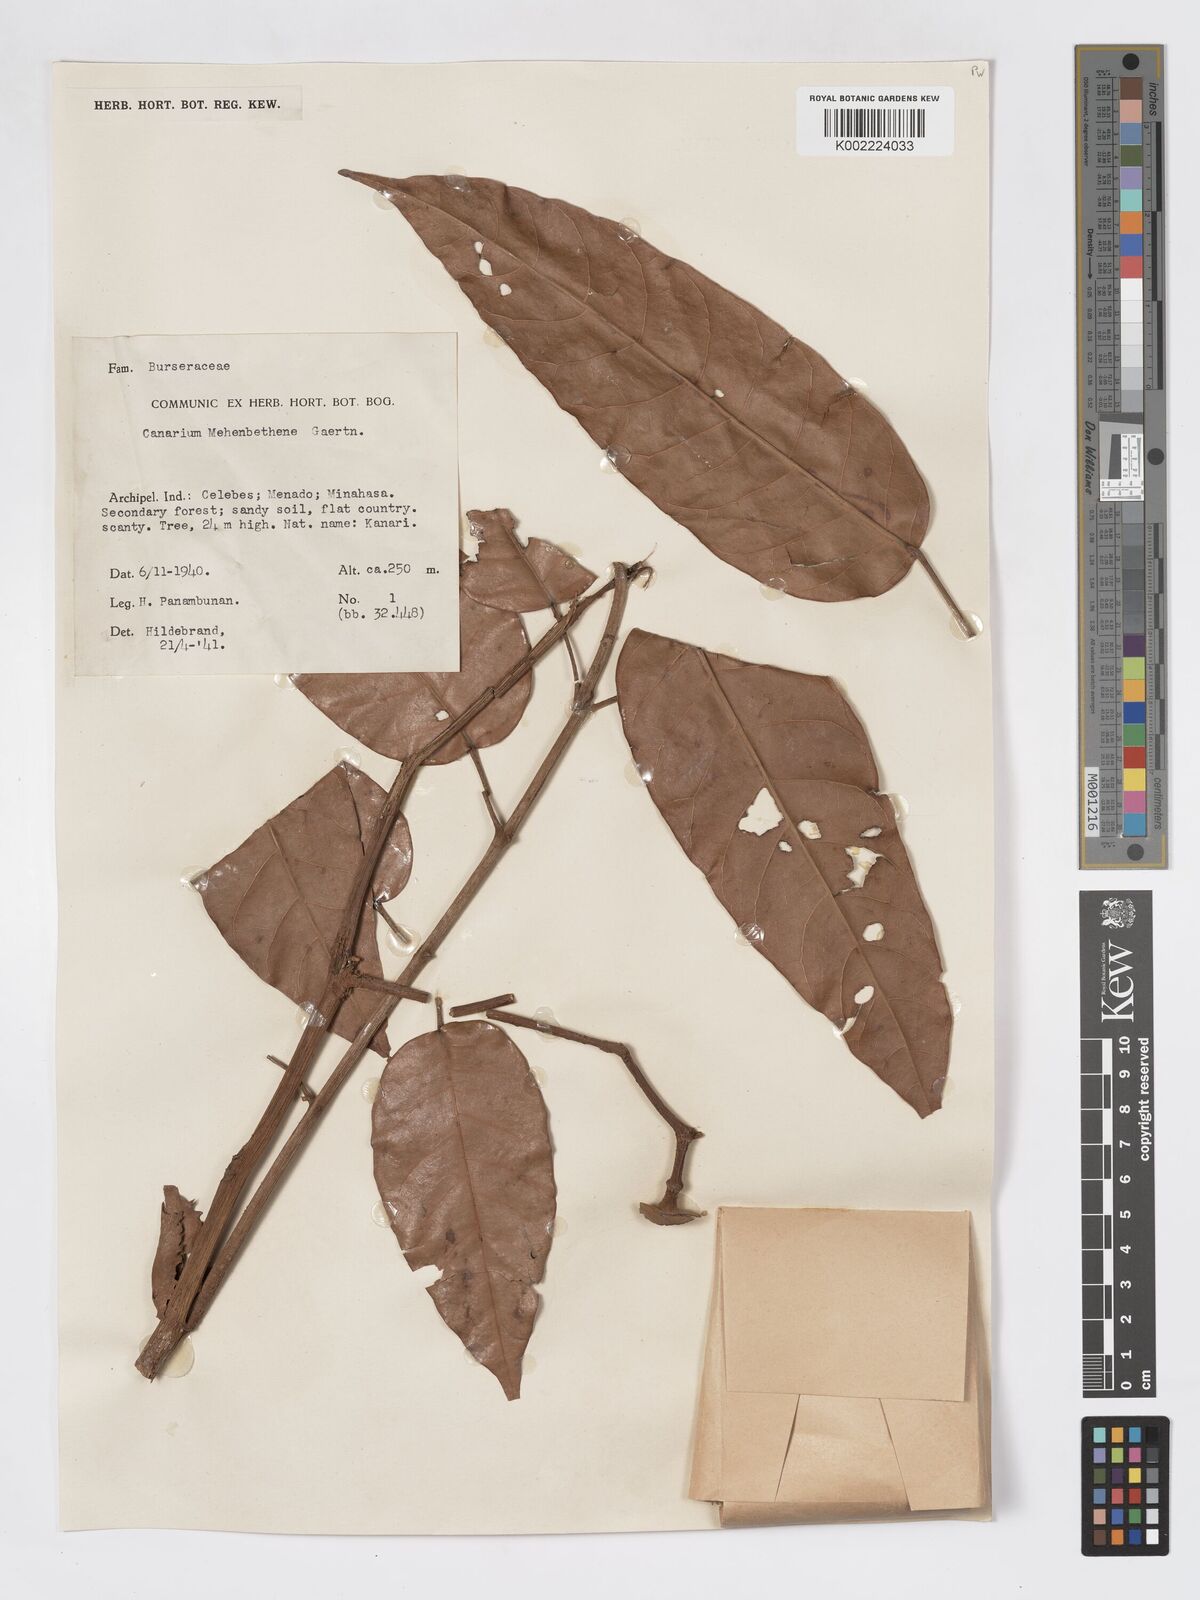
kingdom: Plantae
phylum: Tracheophyta
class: Magnoliopsida
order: Sapindales
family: Burseraceae
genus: Canarium
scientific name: Canarium indicum
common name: Canarium-nut
